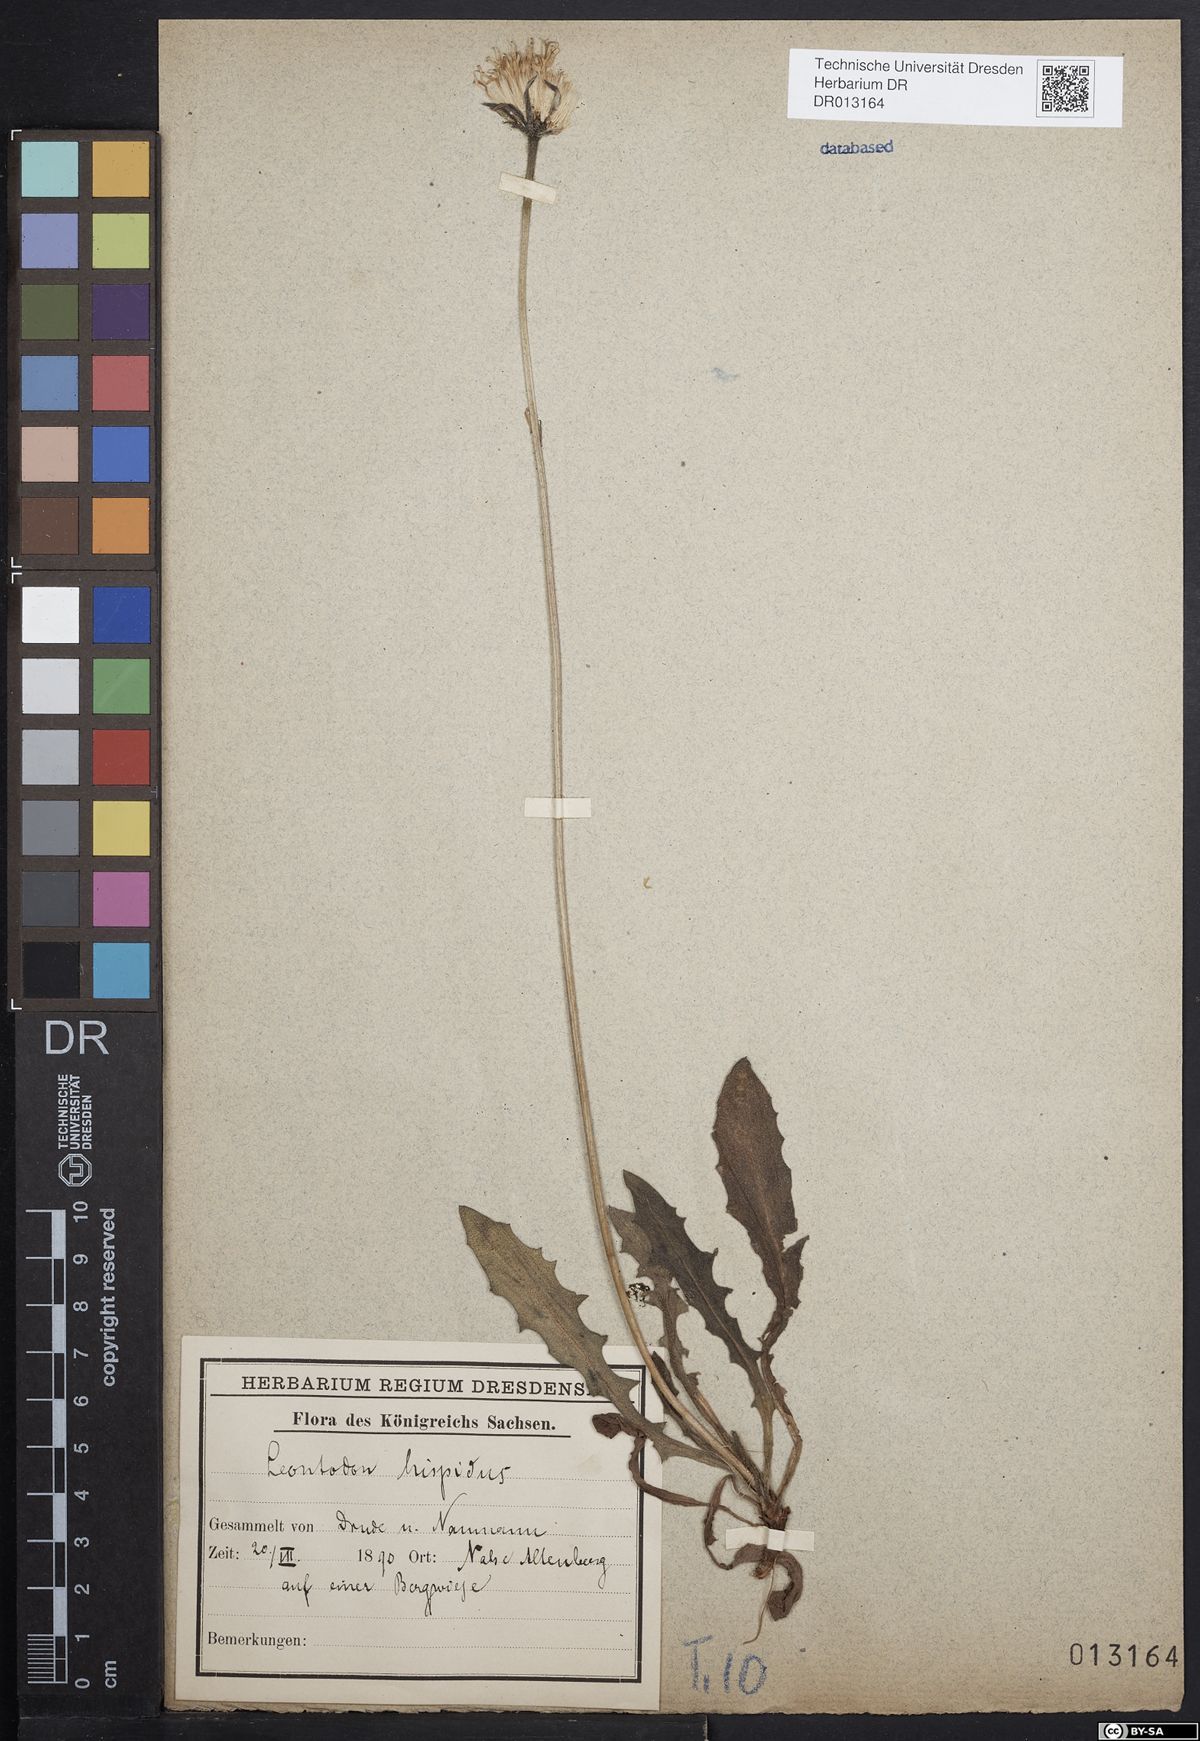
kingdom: Plantae
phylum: Tracheophyta
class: Magnoliopsida
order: Asterales
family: Asteraceae
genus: Leontodon
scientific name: Leontodon hispidus
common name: Rough hawkbit
